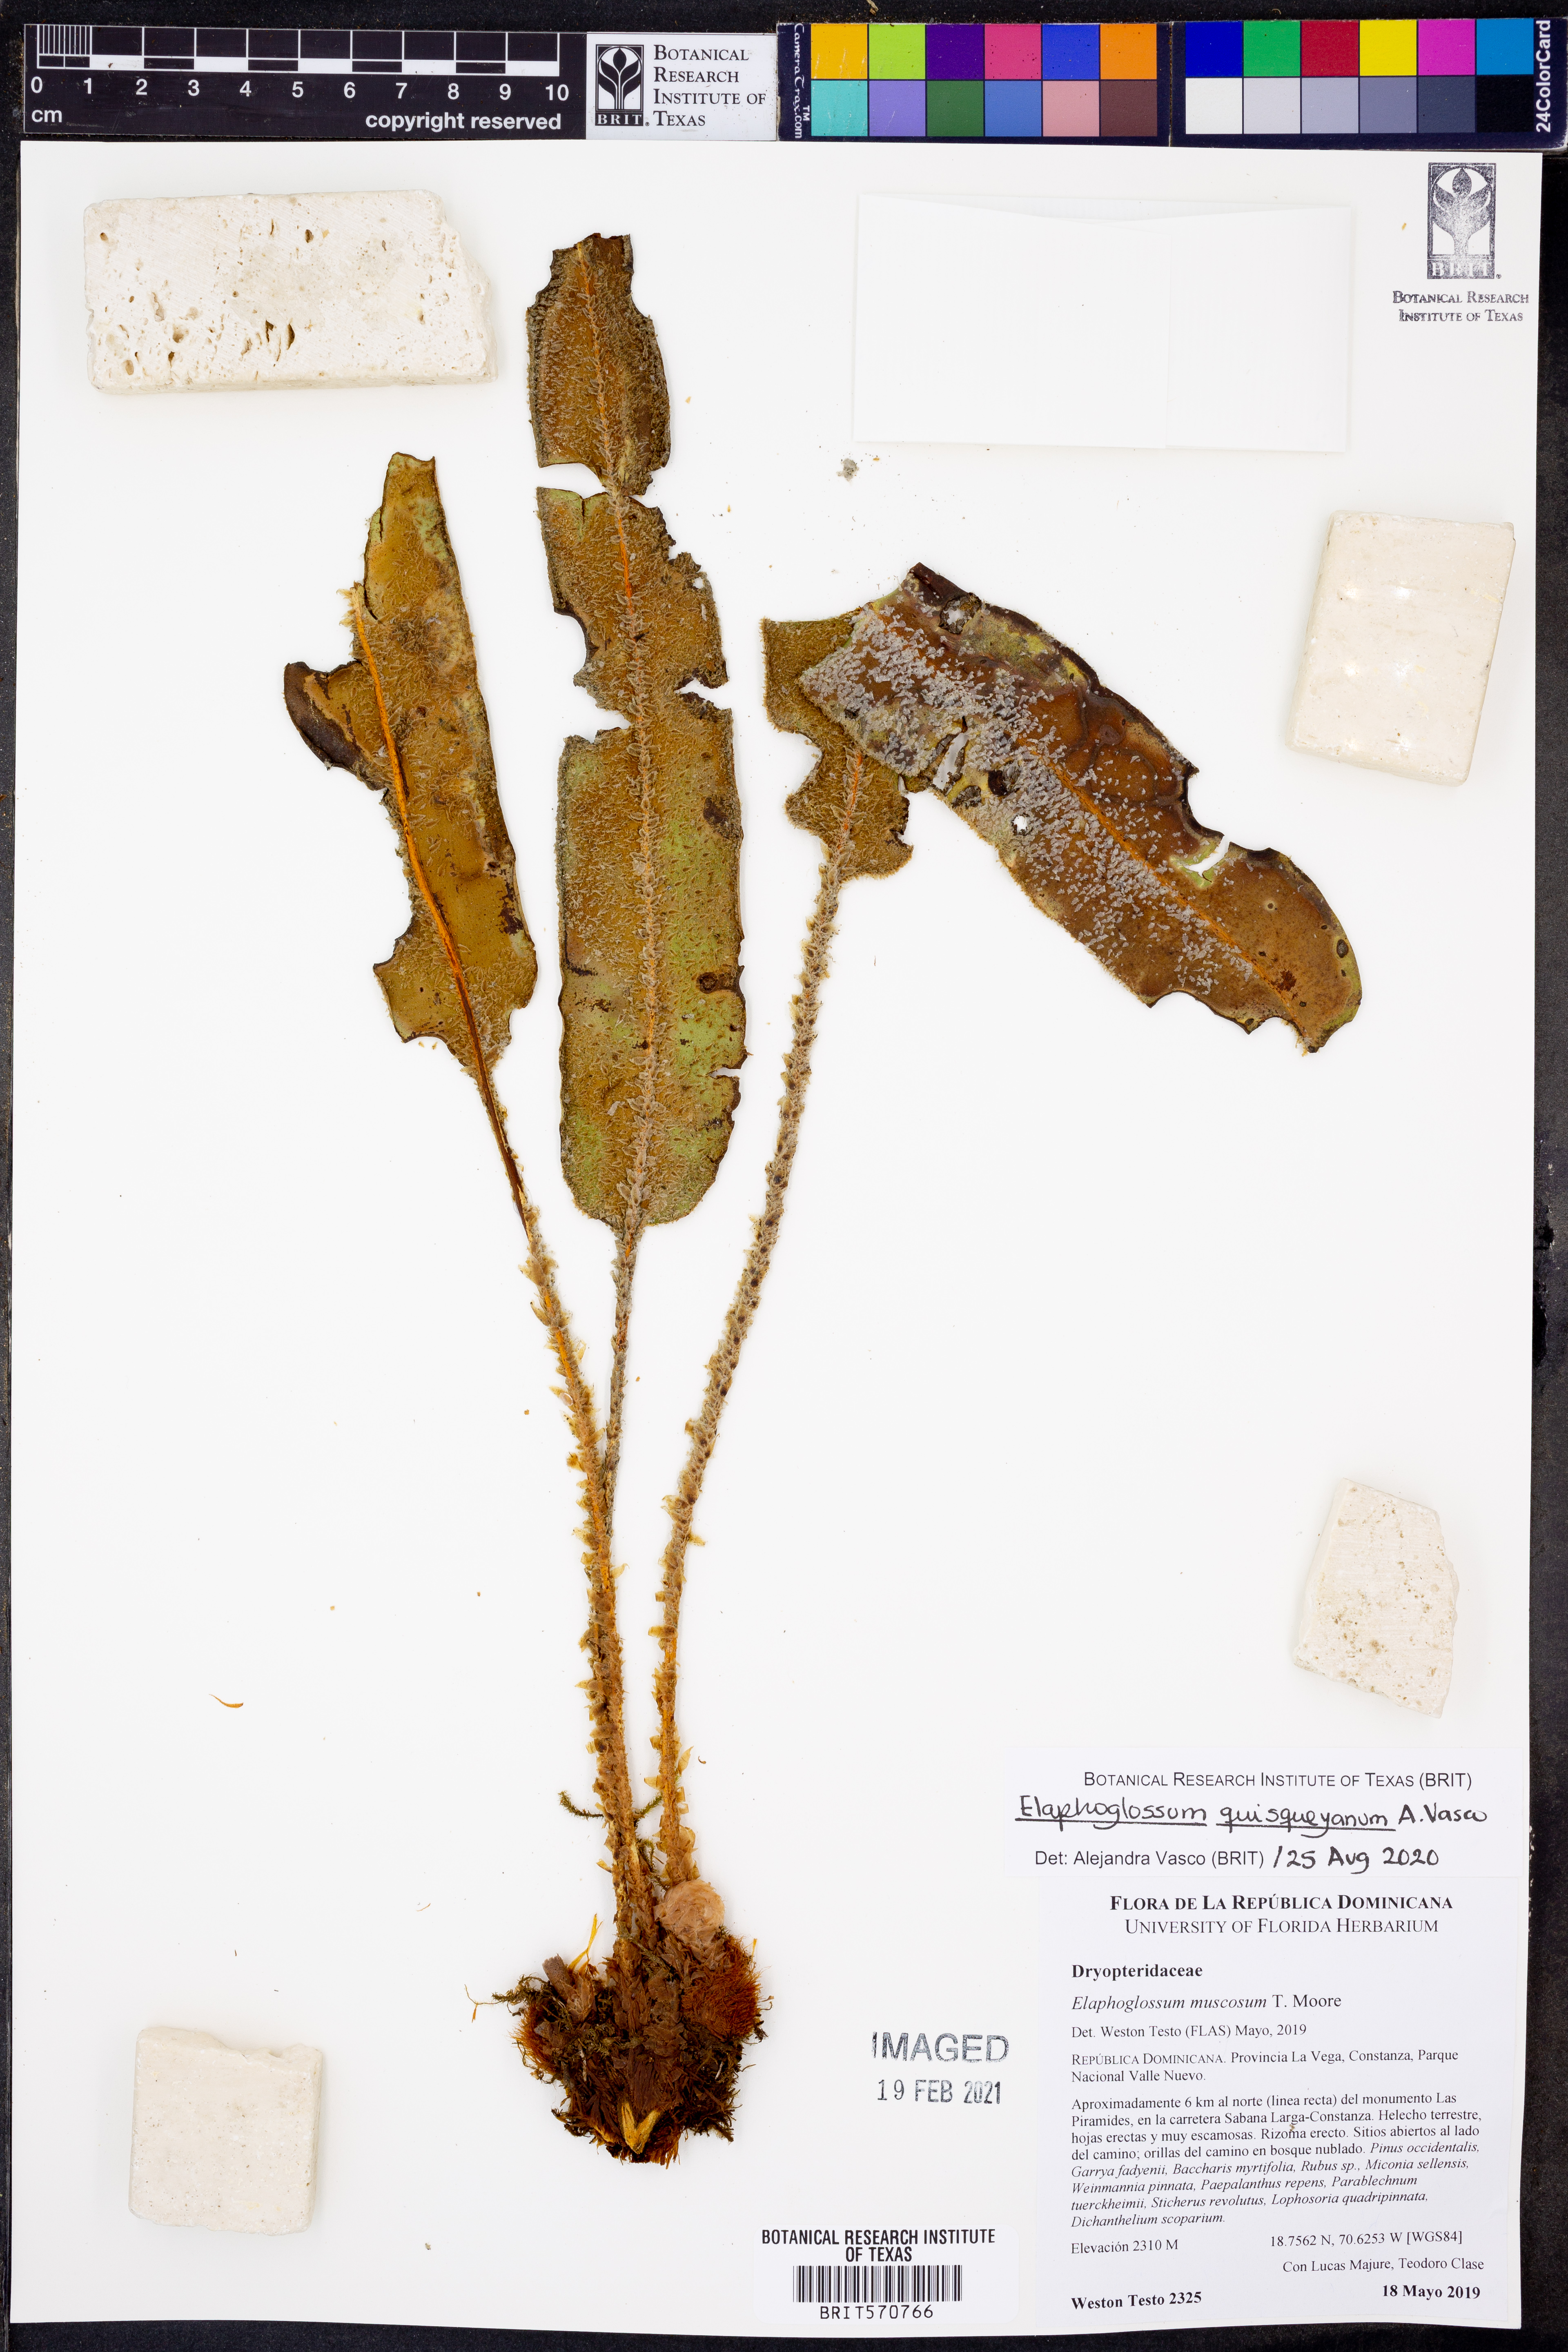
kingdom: Plantae
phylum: Tracheophyta
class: Polypodiopsida
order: Polypodiales
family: Dryopteridaceae
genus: Elaphoglossum
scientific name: Elaphoglossum quisqueyanum
